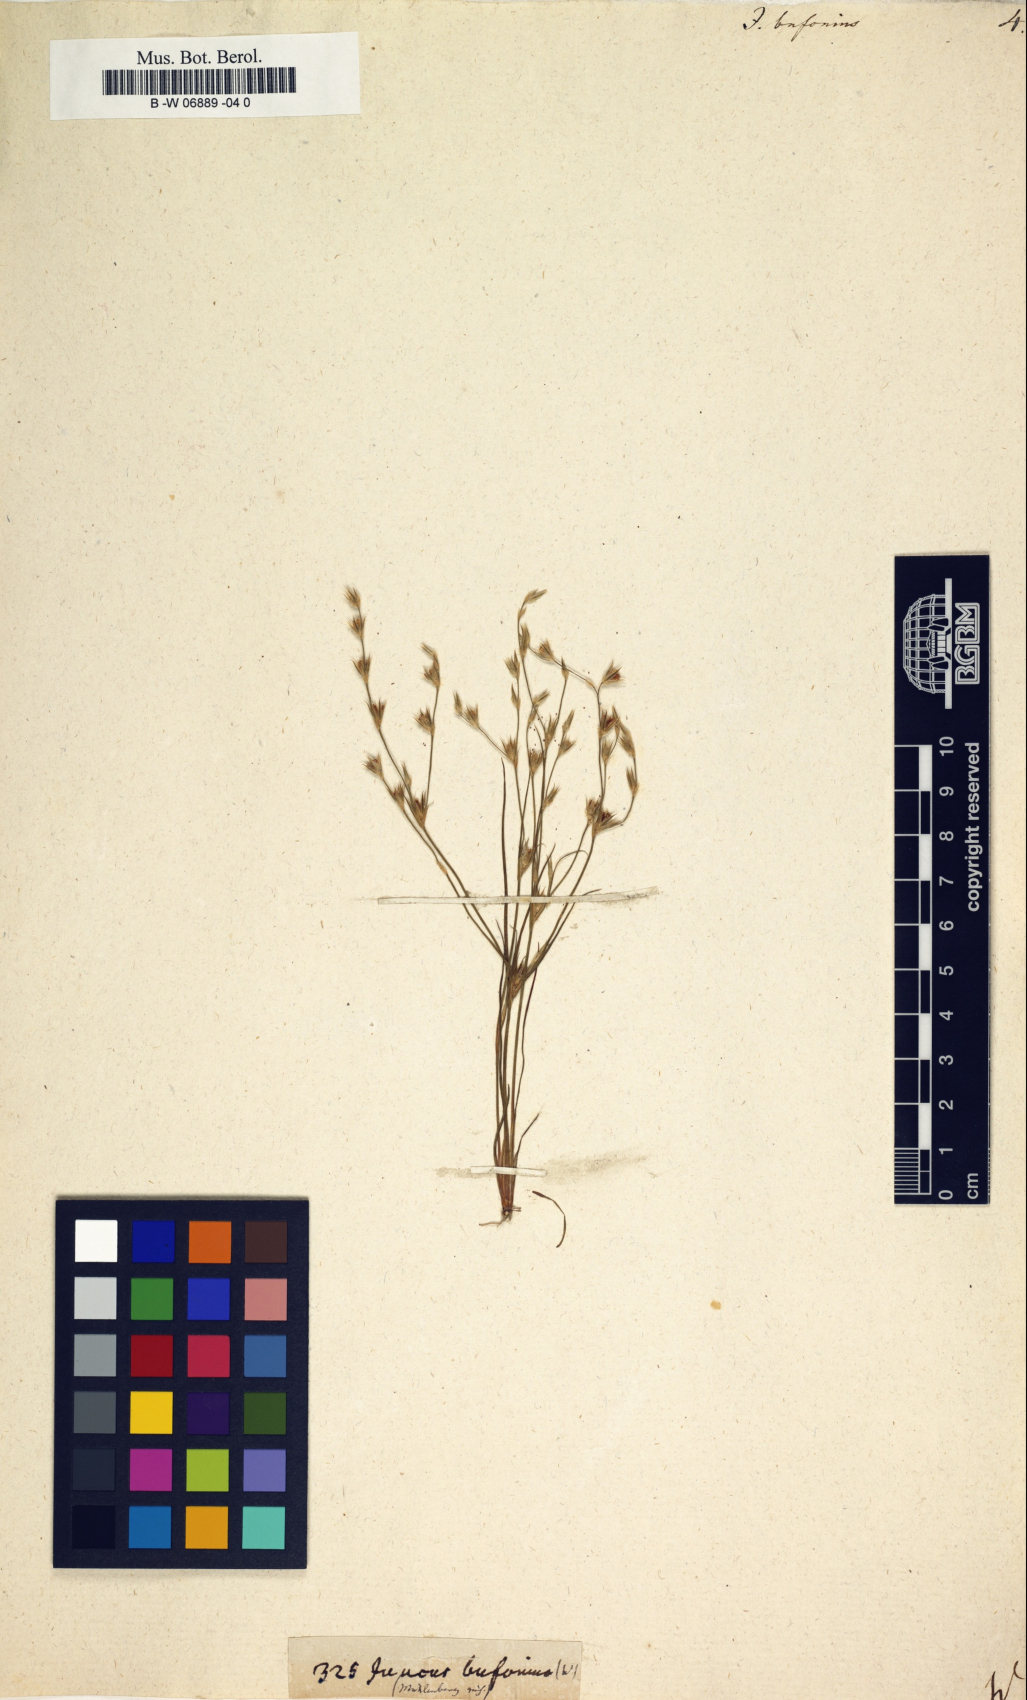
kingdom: Plantae
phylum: Tracheophyta
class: Liliopsida
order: Poales
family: Juncaceae
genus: Juncus
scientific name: Juncus bufonius
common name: Toad rush
